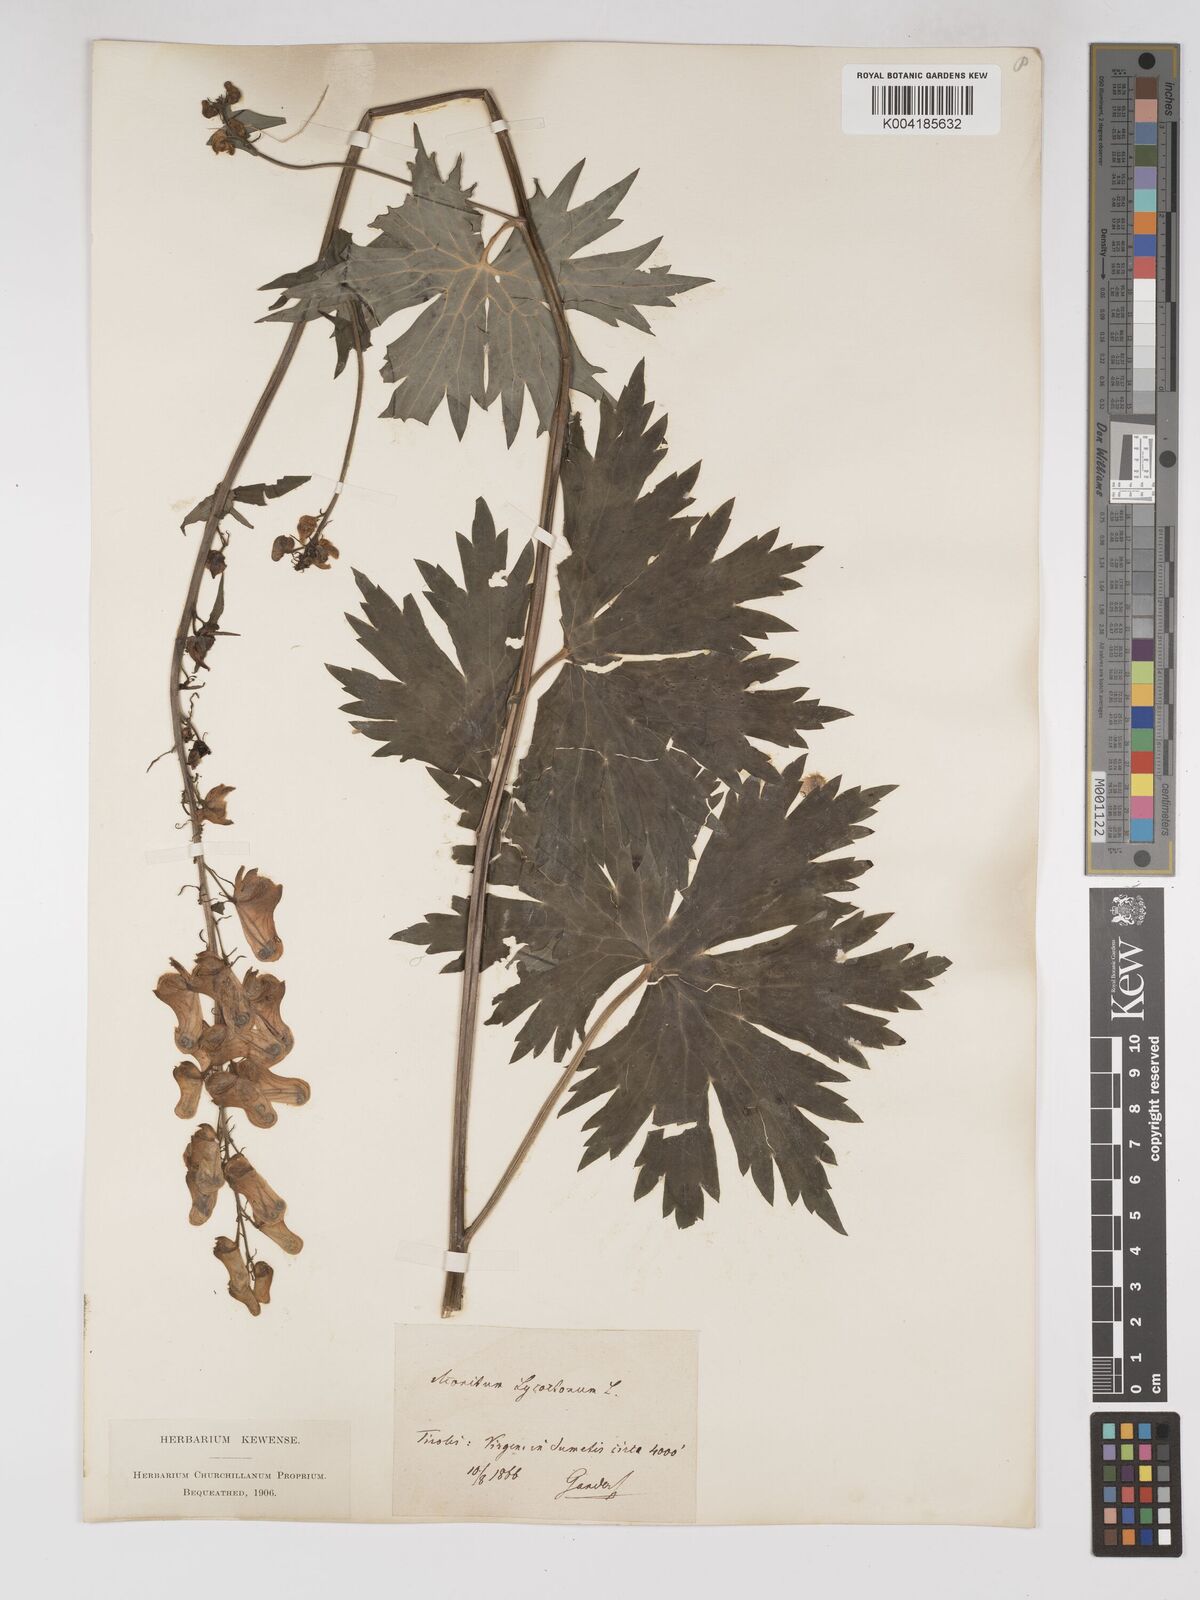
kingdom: Plantae
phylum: Tracheophyta
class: Magnoliopsida
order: Ranunculales
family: Ranunculaceae
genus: Aconitum
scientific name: Aconitum lycoctonum
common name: Wolf's-bane
